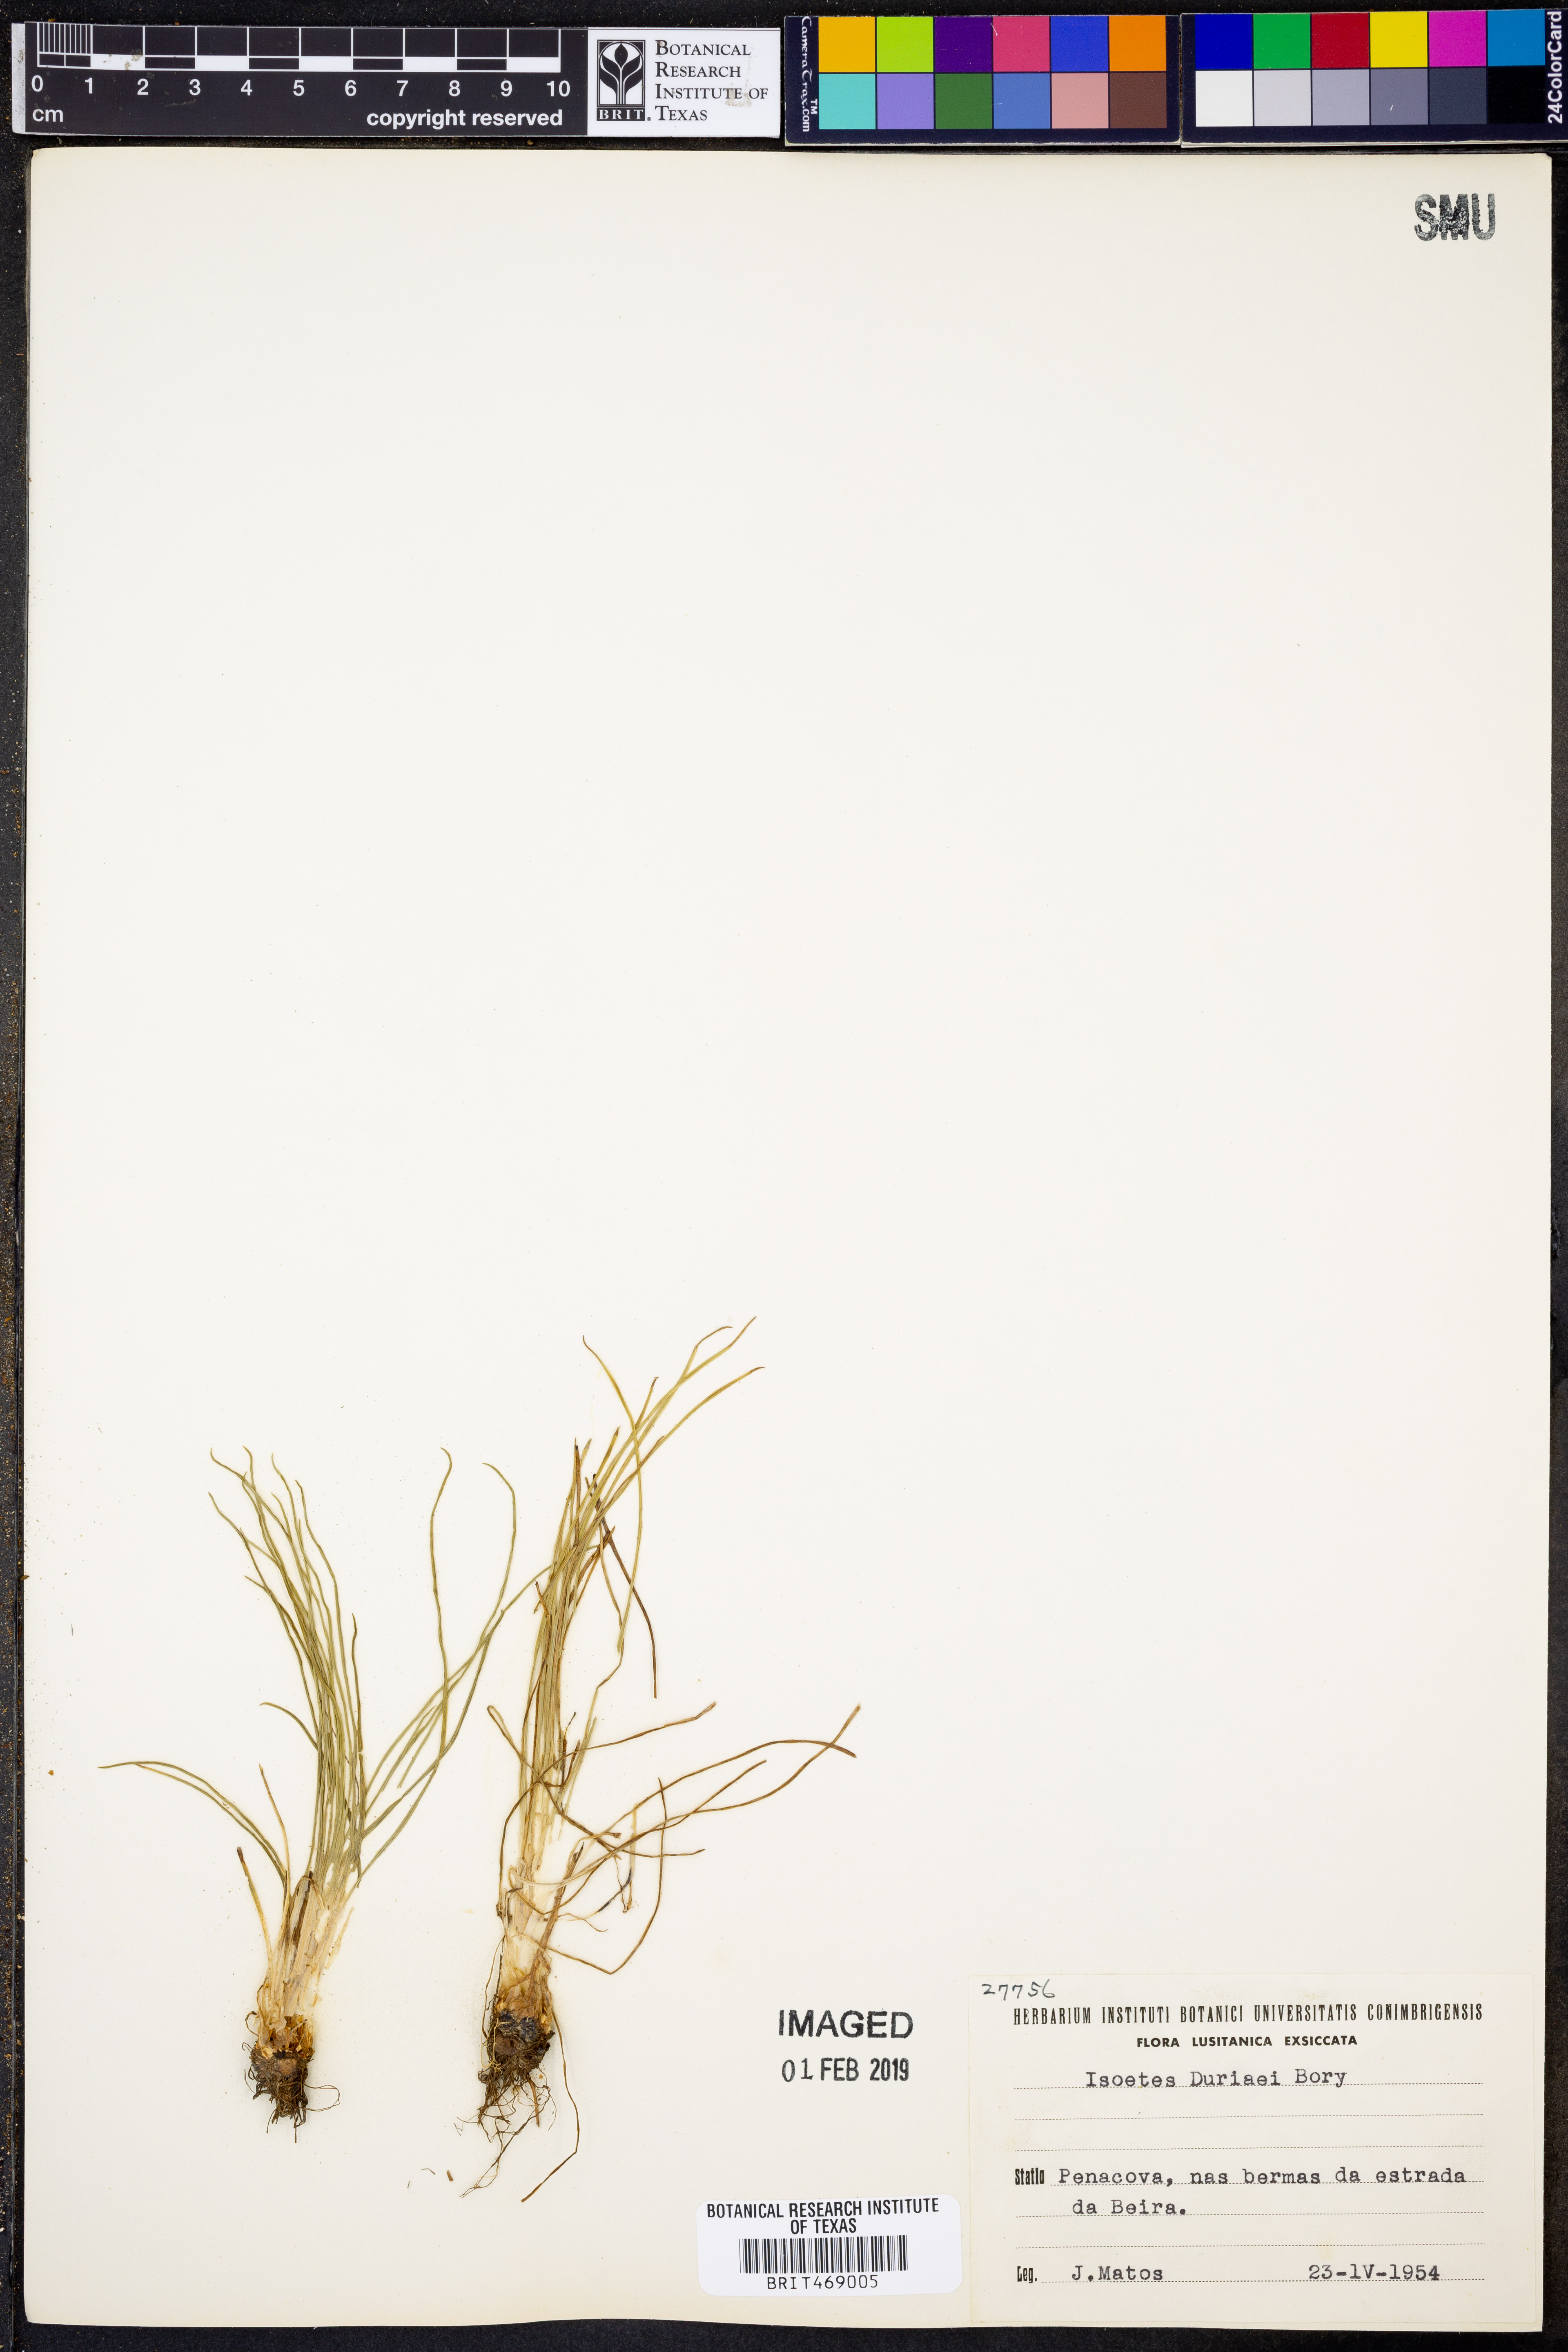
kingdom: Plantae
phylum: Tracheophyta
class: Lycopodiopsida
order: Isoetales
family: Isoetaceae
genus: Isoetes
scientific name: Isoetes duriei
